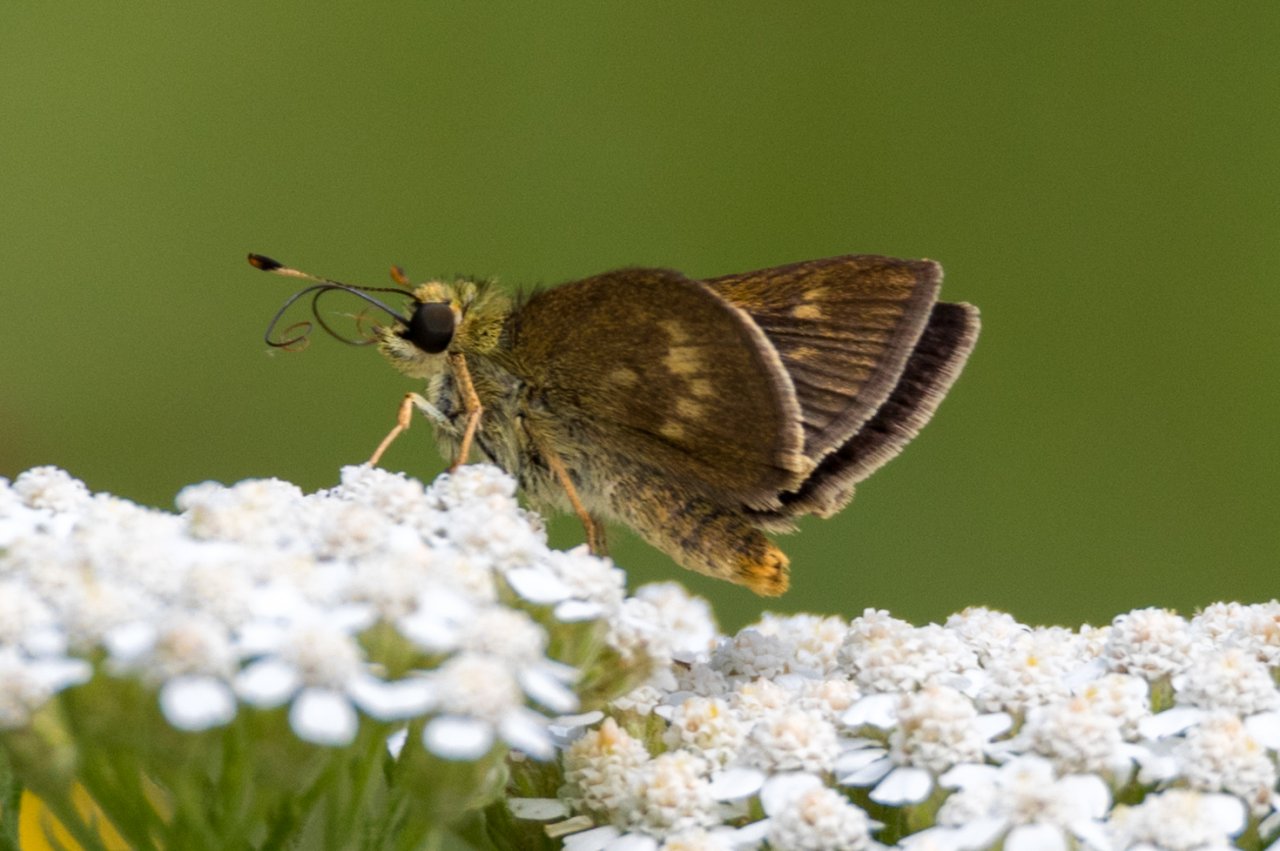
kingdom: Animalia
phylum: Arthropoda
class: Insecta
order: Lepidoptera
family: Hesperiidae
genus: Polites
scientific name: Polites egeremet
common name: Northern Broken-Dash
